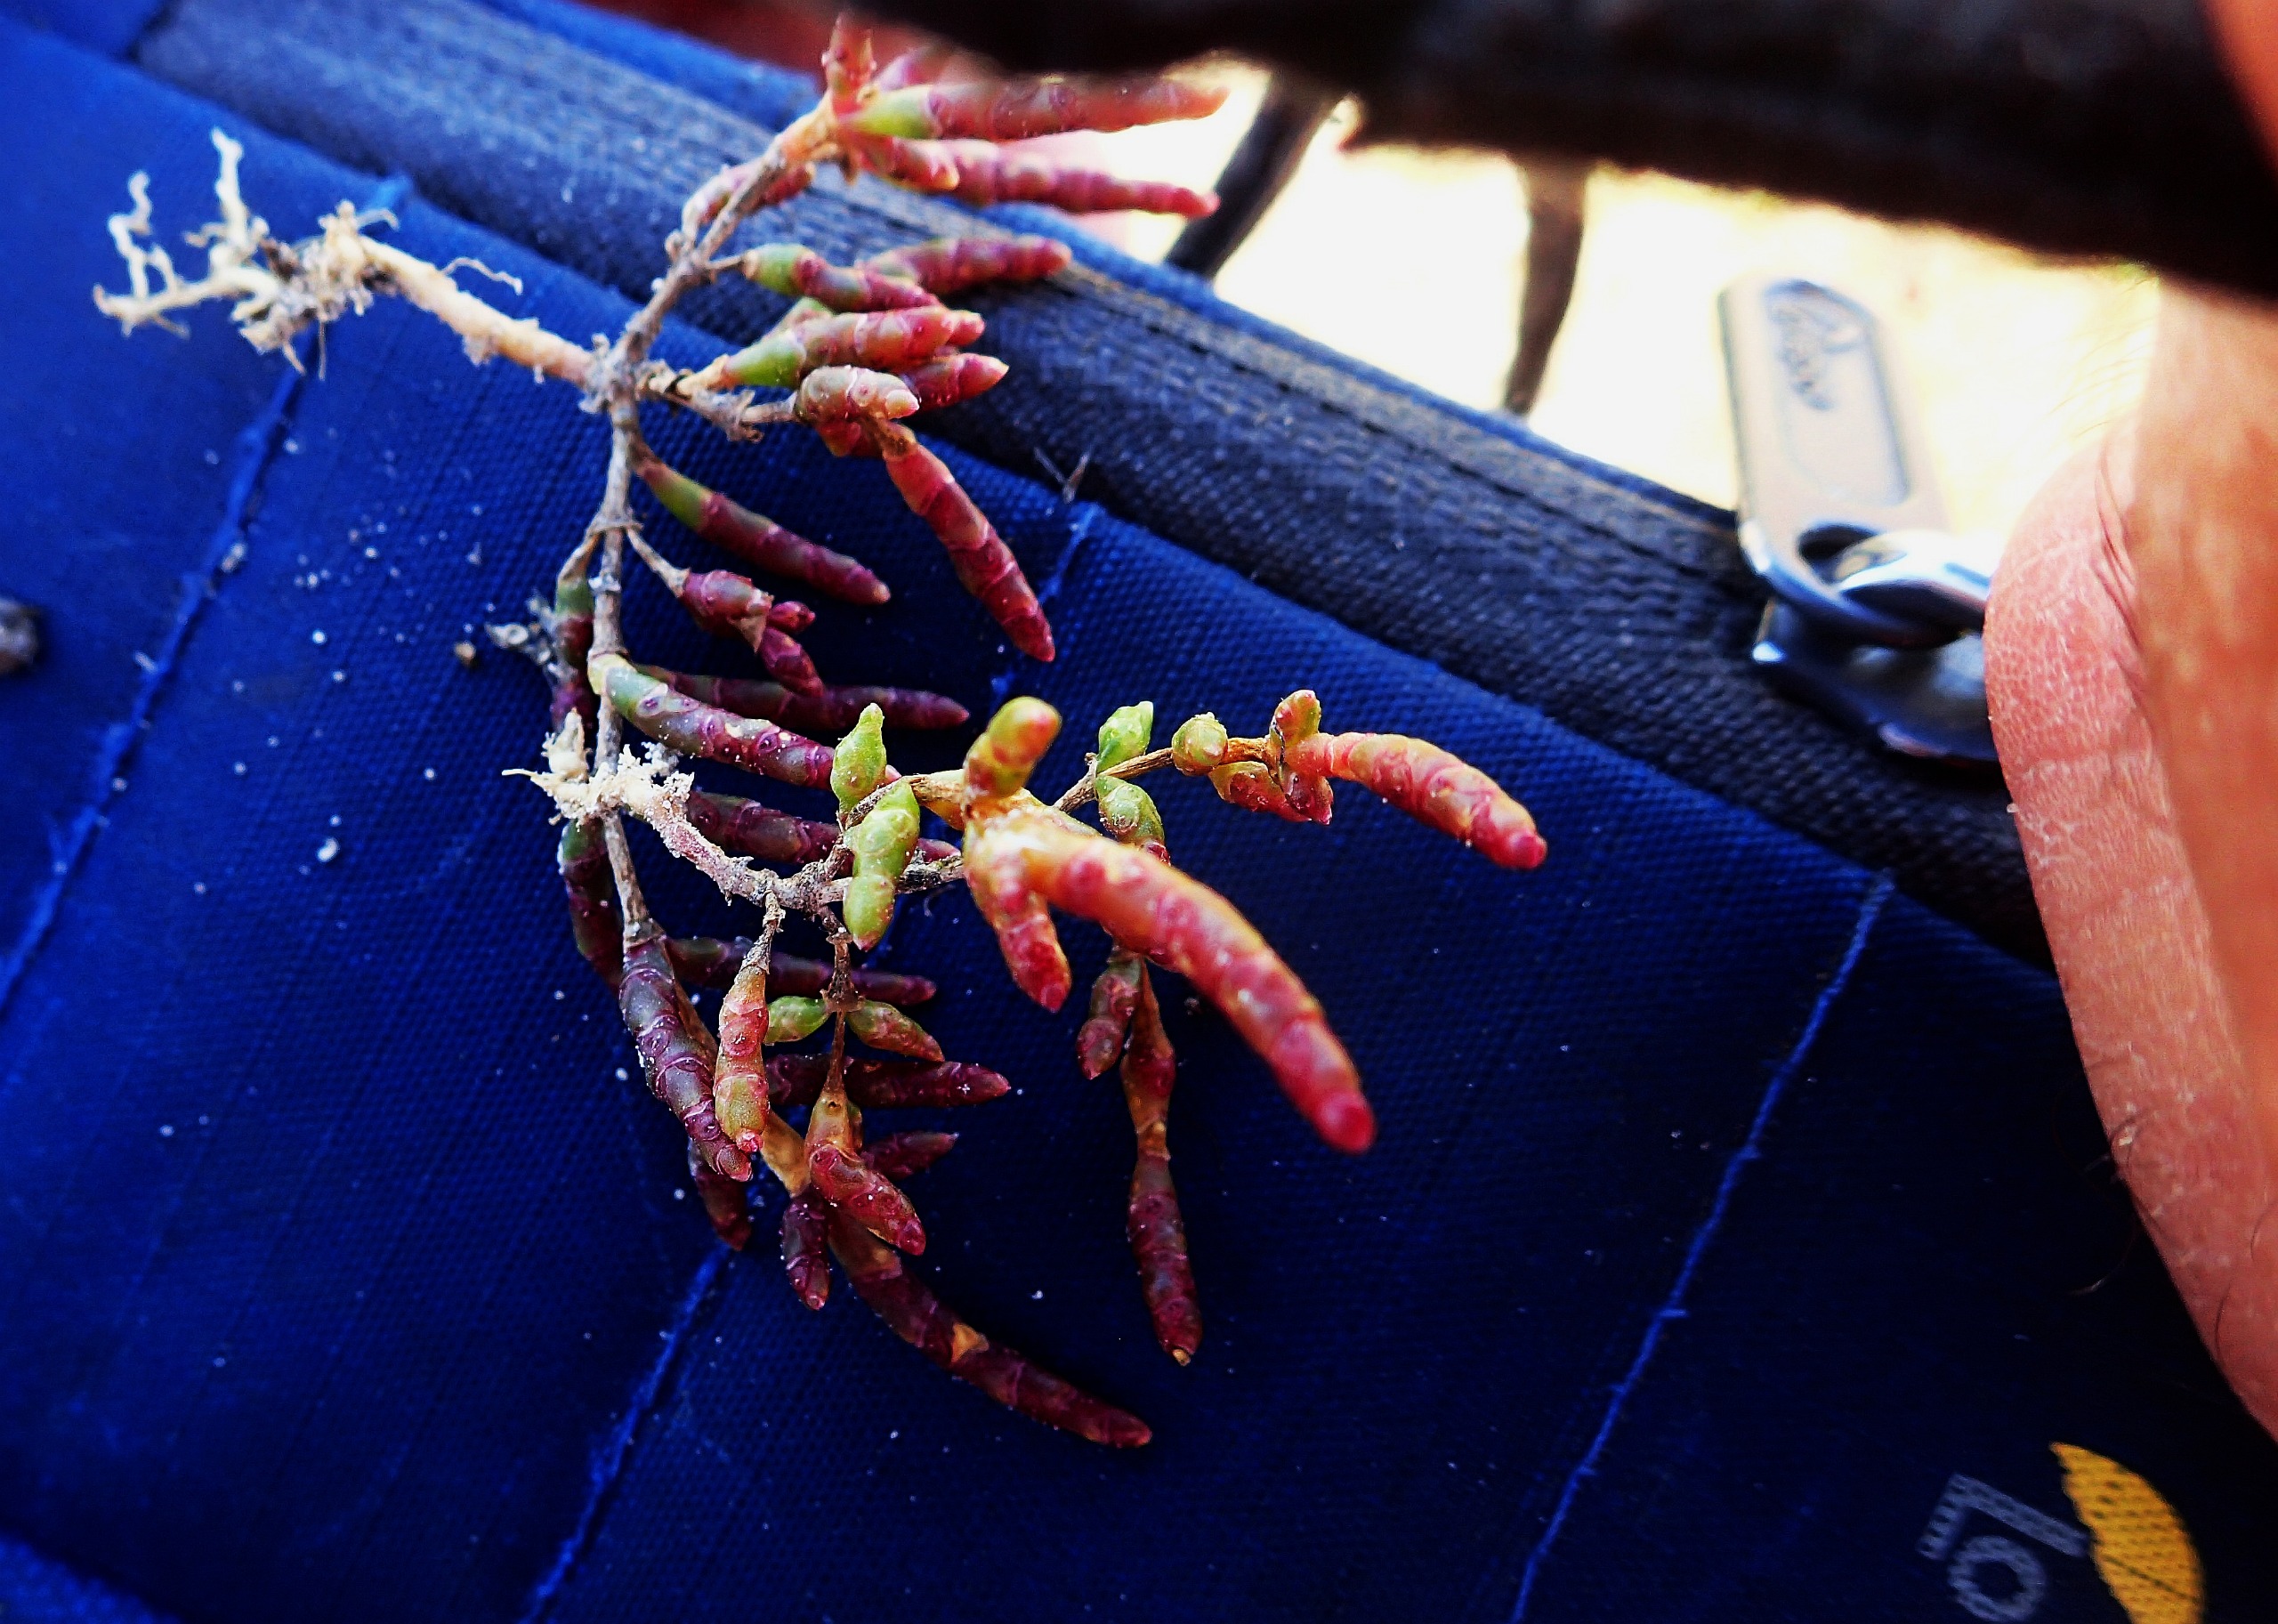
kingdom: Plantae
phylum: Tracheophyta
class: Magnoliopsida
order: Caryophyllales
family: Amaranthaceae
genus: Salicornia
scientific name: Salicornia europaea
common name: Almindelig salturt
